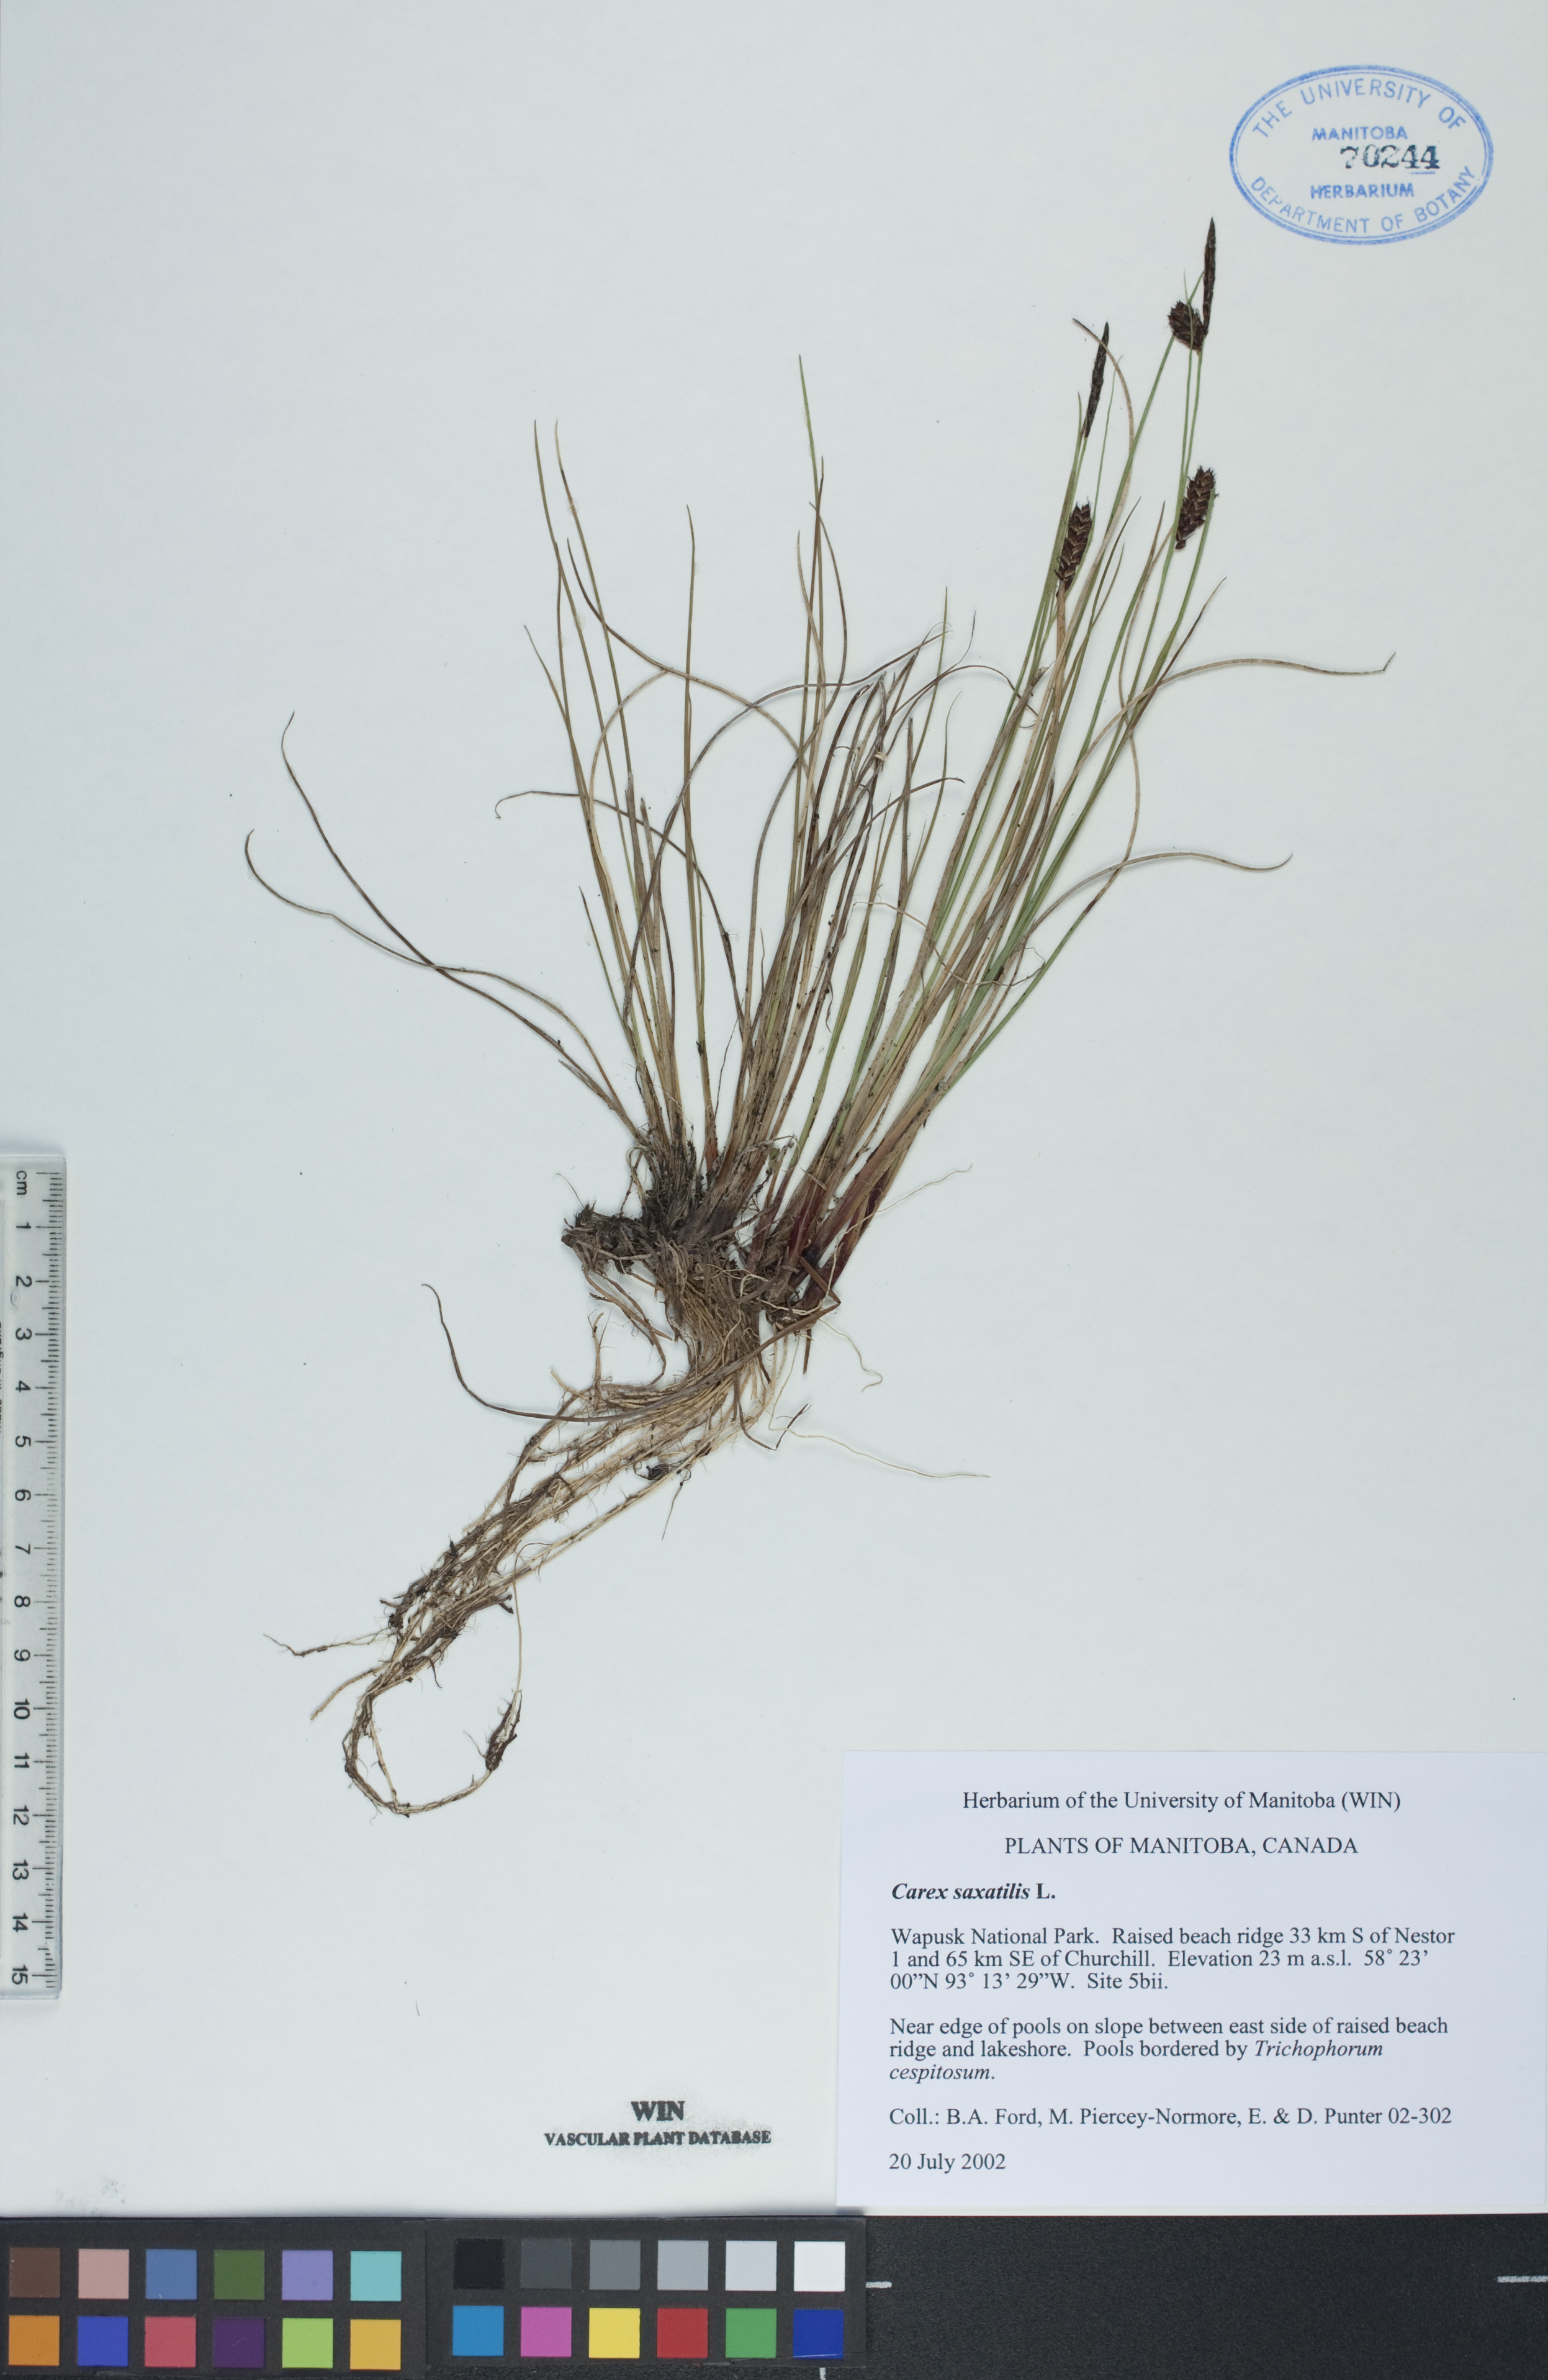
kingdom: Plantae
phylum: Tracheophyta
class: Liliopsida
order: Poales
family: Cyperaceae
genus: Carex
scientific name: Carex saxatilis
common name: Russet sedge
